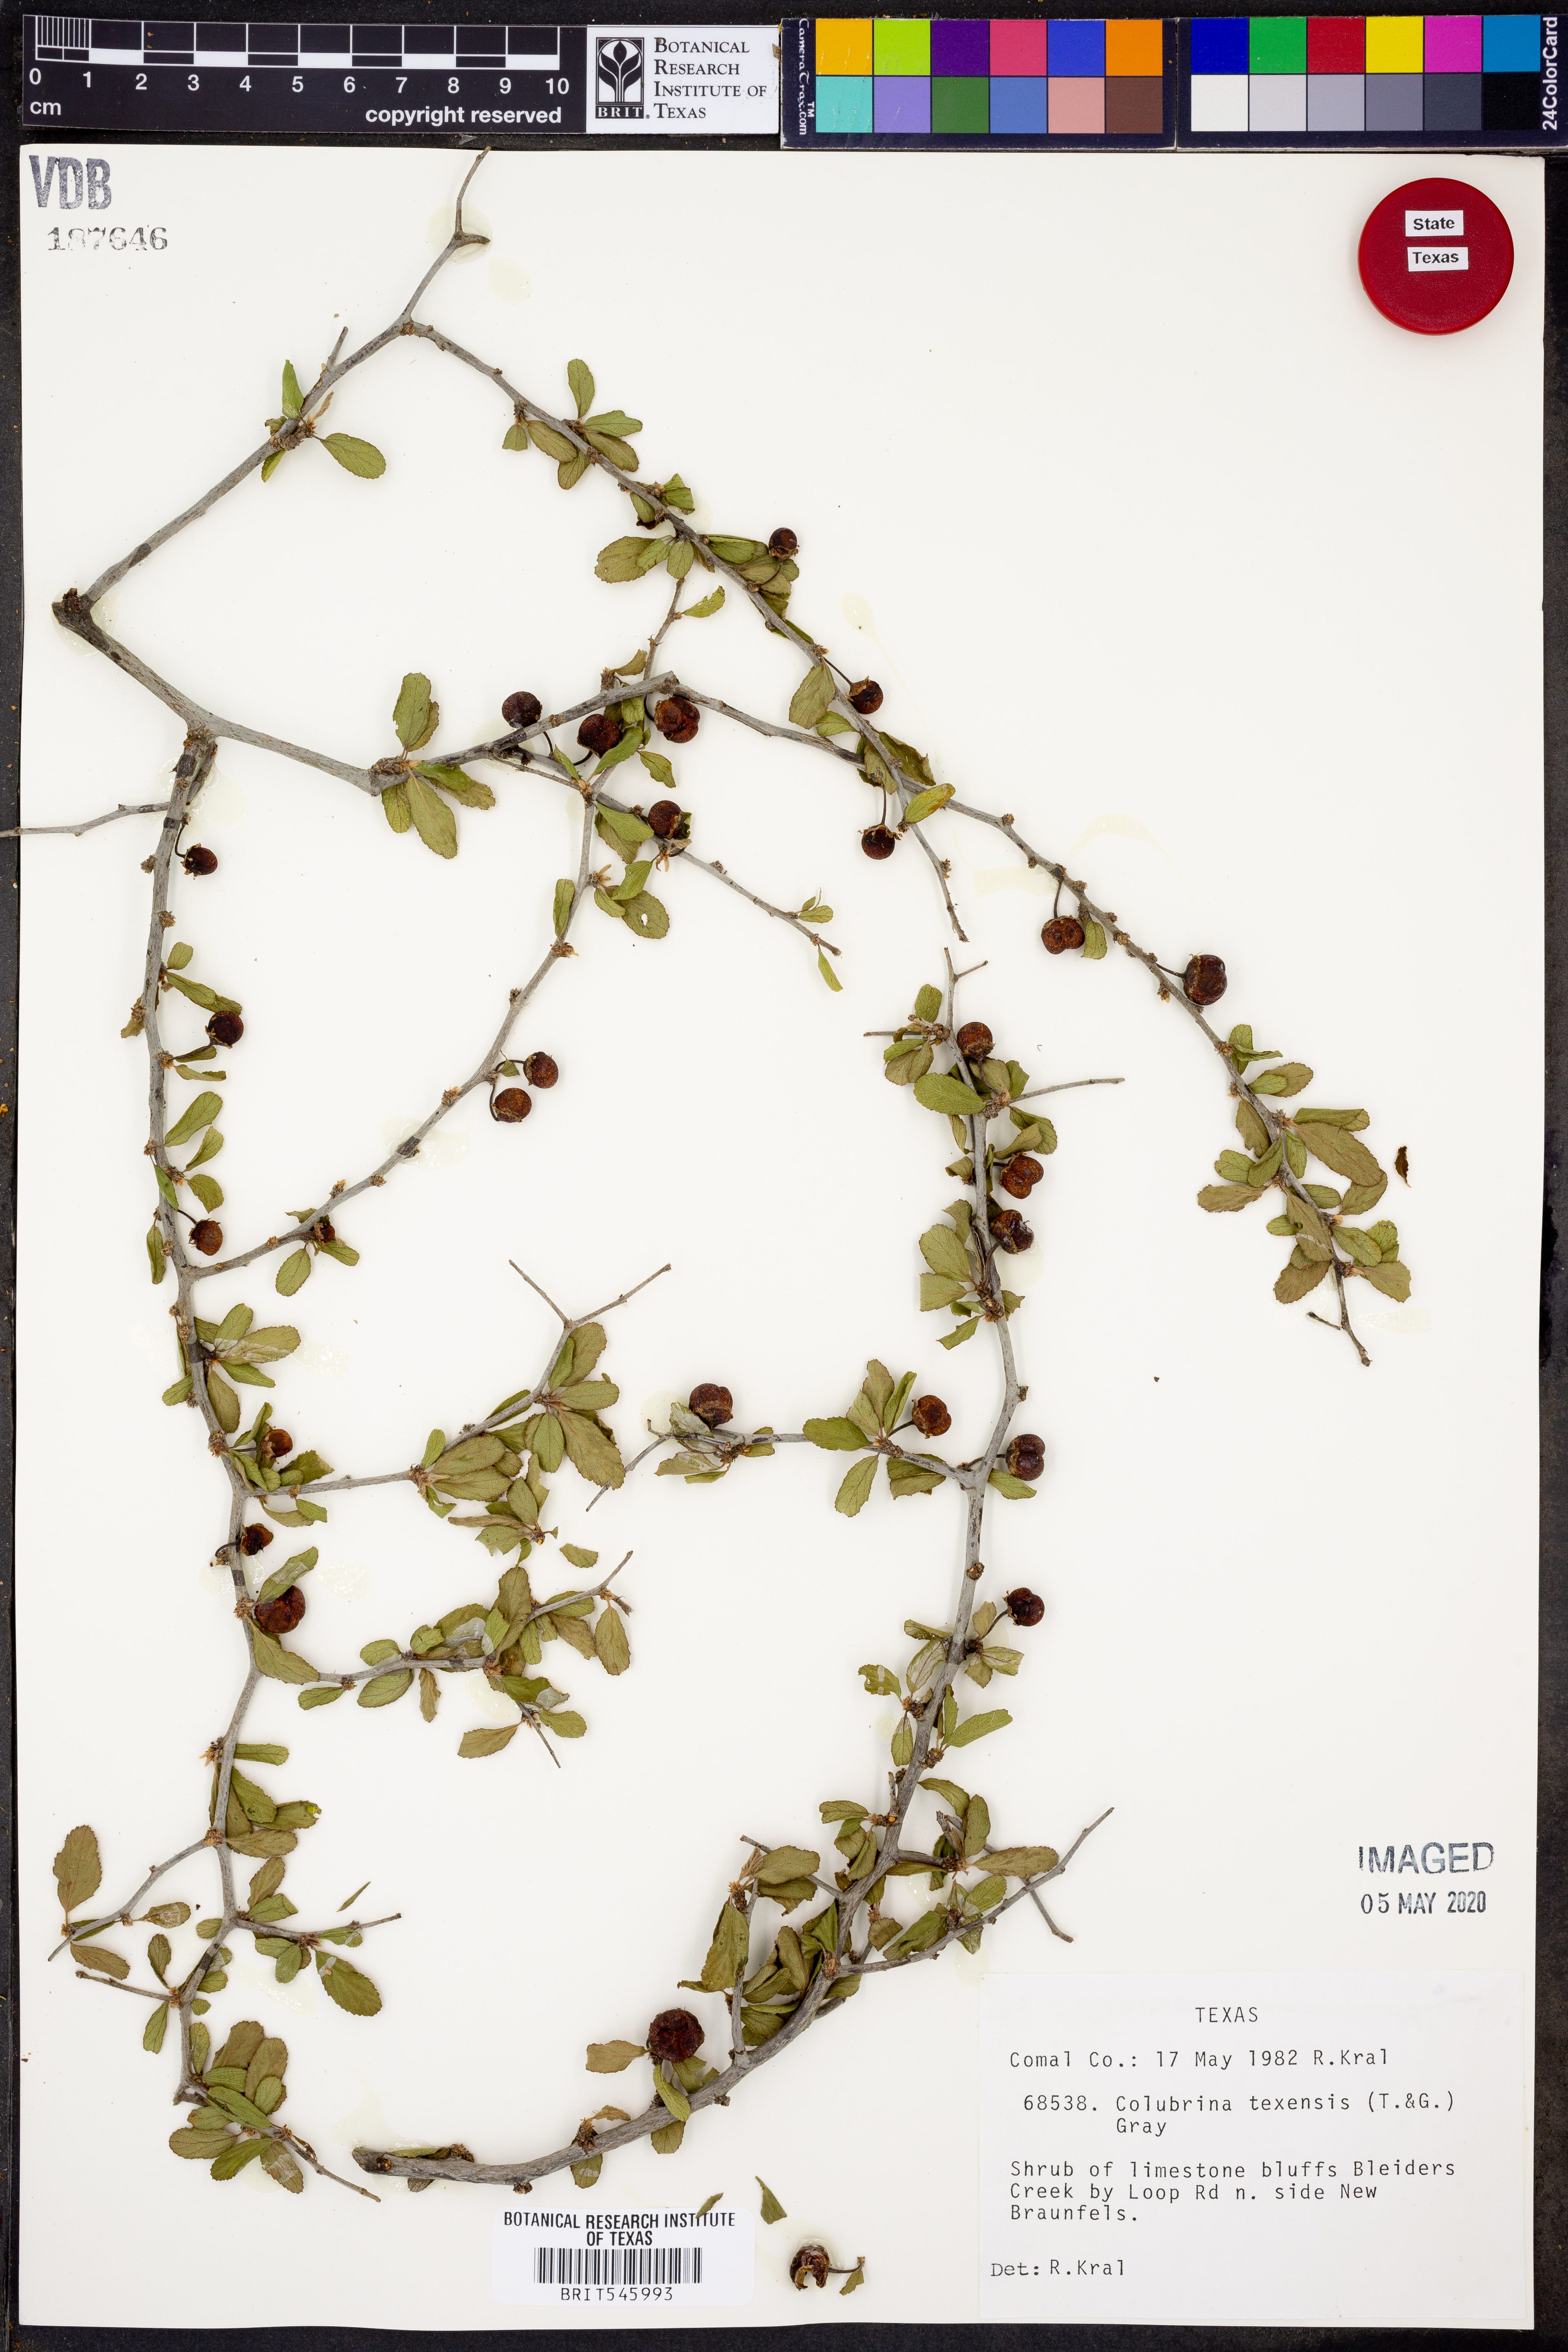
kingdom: Plantae
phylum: Tracheophyta
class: Magnoliopsida
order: Rosales
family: Rhamnaceae
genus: Colubrina
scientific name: Colubrina texensis
